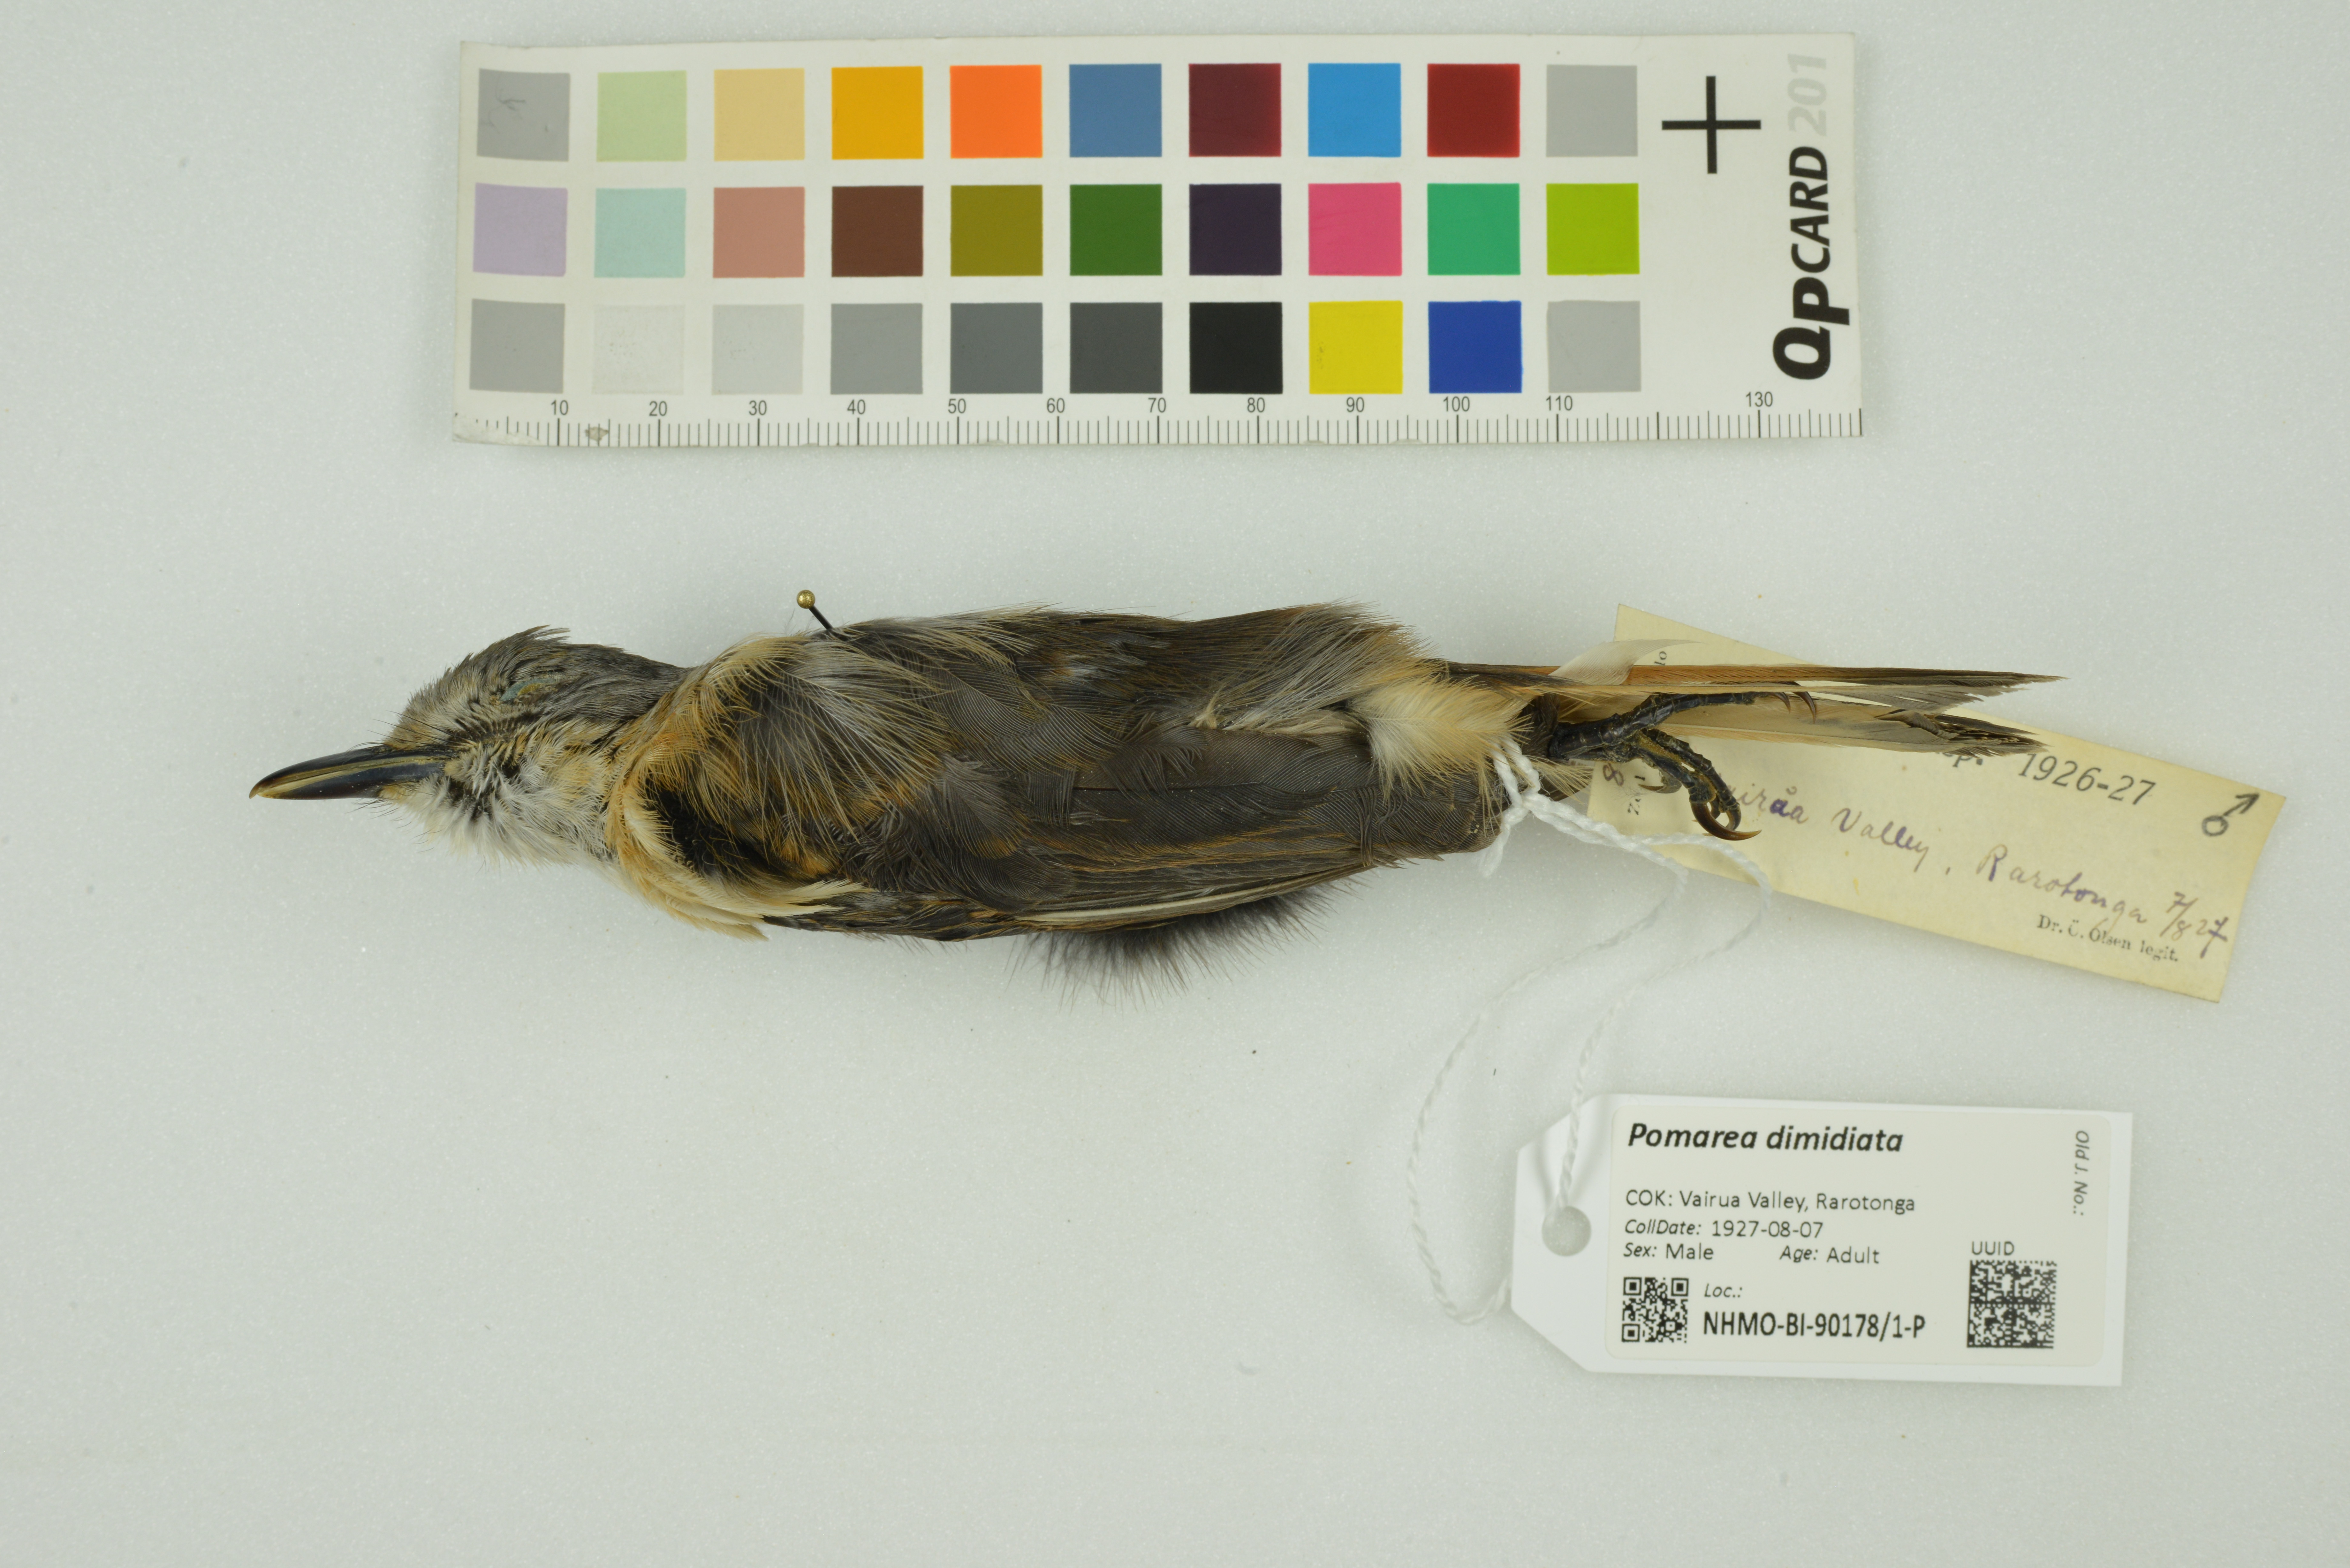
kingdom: Animalia
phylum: Chordata
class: Aves
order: Passeriformes
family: Monarchidae
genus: Pomarea
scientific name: Pomarea dimidiata
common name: Rarotonga monarch
